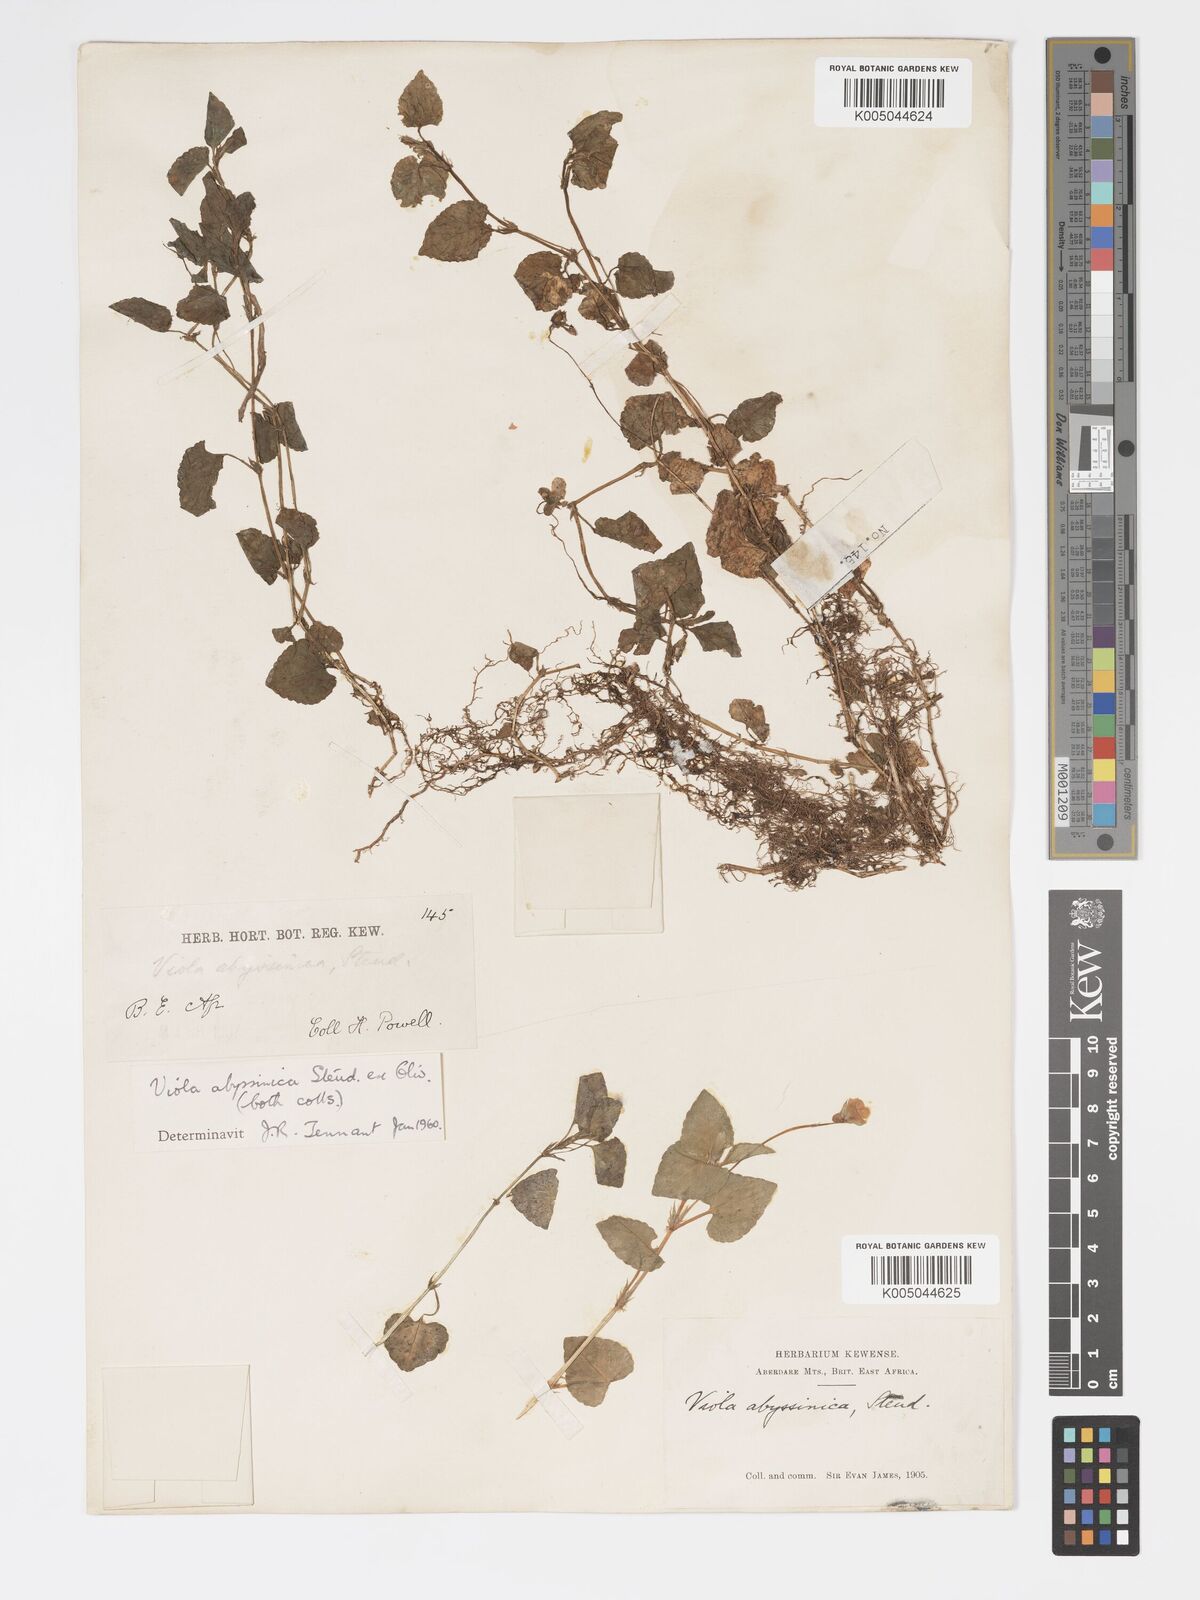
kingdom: Plantae
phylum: Tracheophyta
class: Magnoliopsida
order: Malpighiales
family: Violaceae
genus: Viola
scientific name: Viola abyssinica
